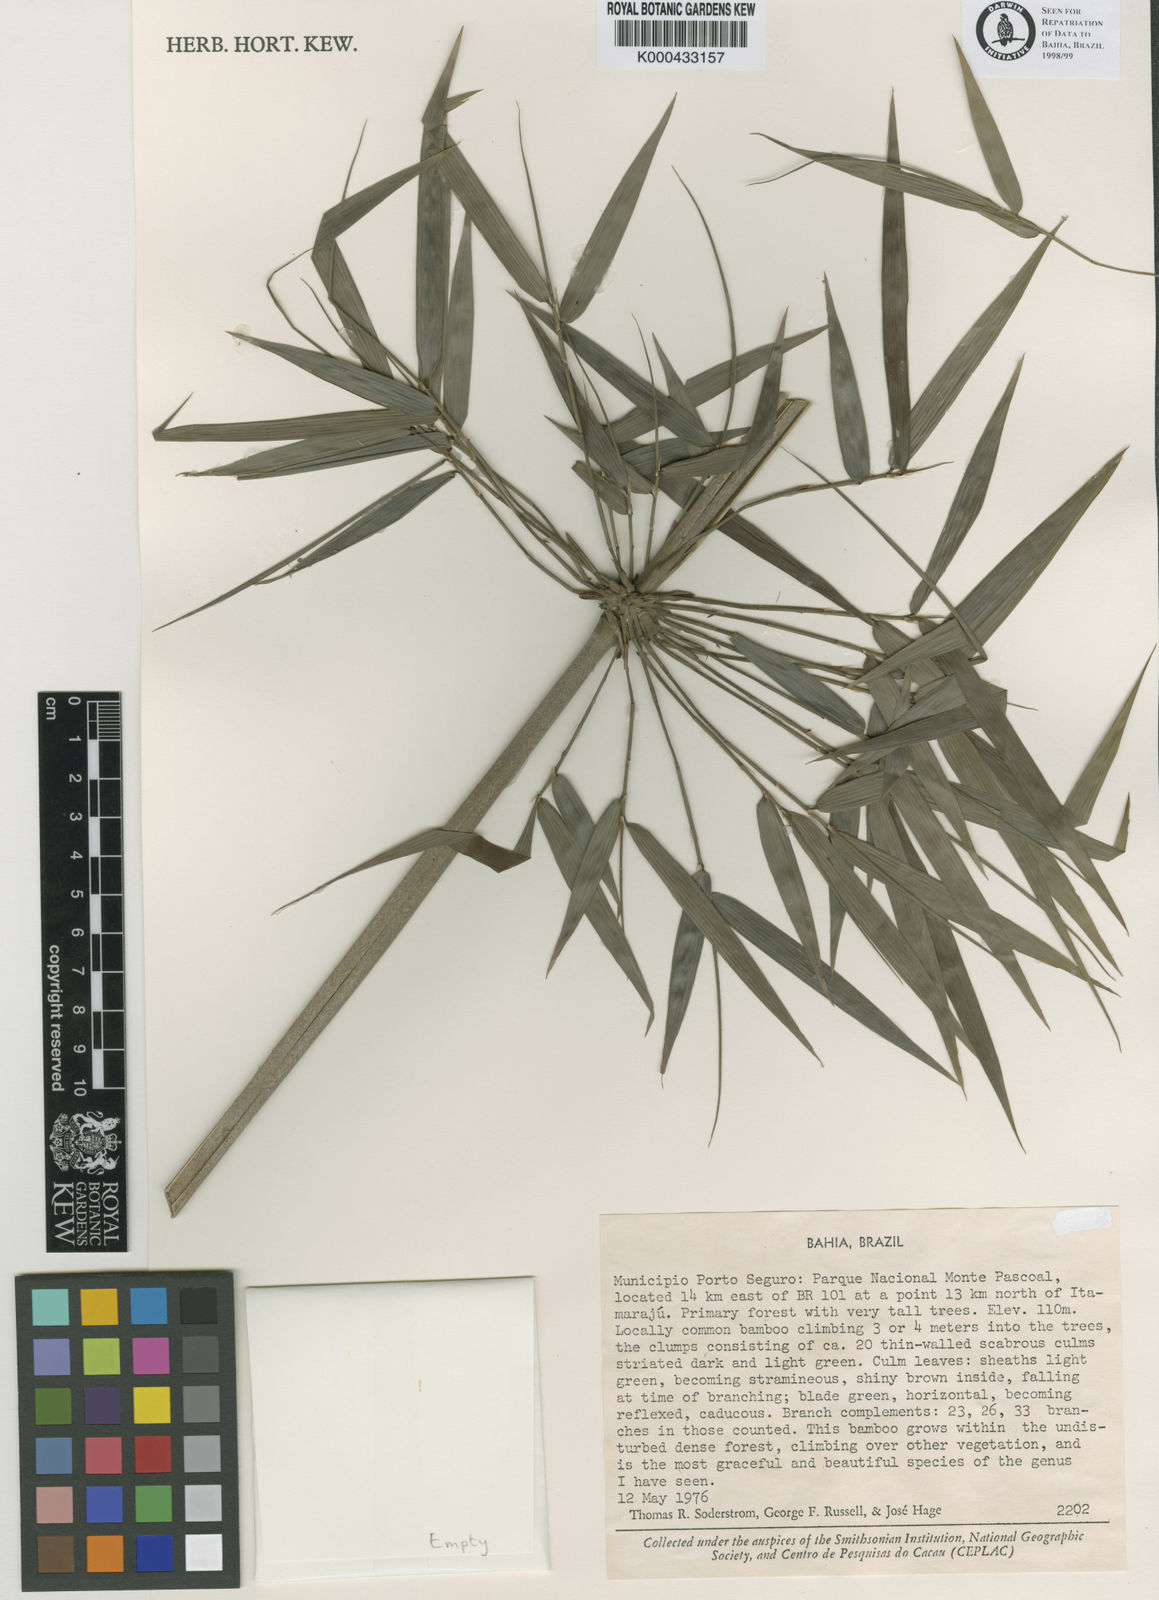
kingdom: Plantae
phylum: Tracheophyta
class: Liliopsida
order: Poales
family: Poaceae
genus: Merostachys
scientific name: Merostachys bifurcata
